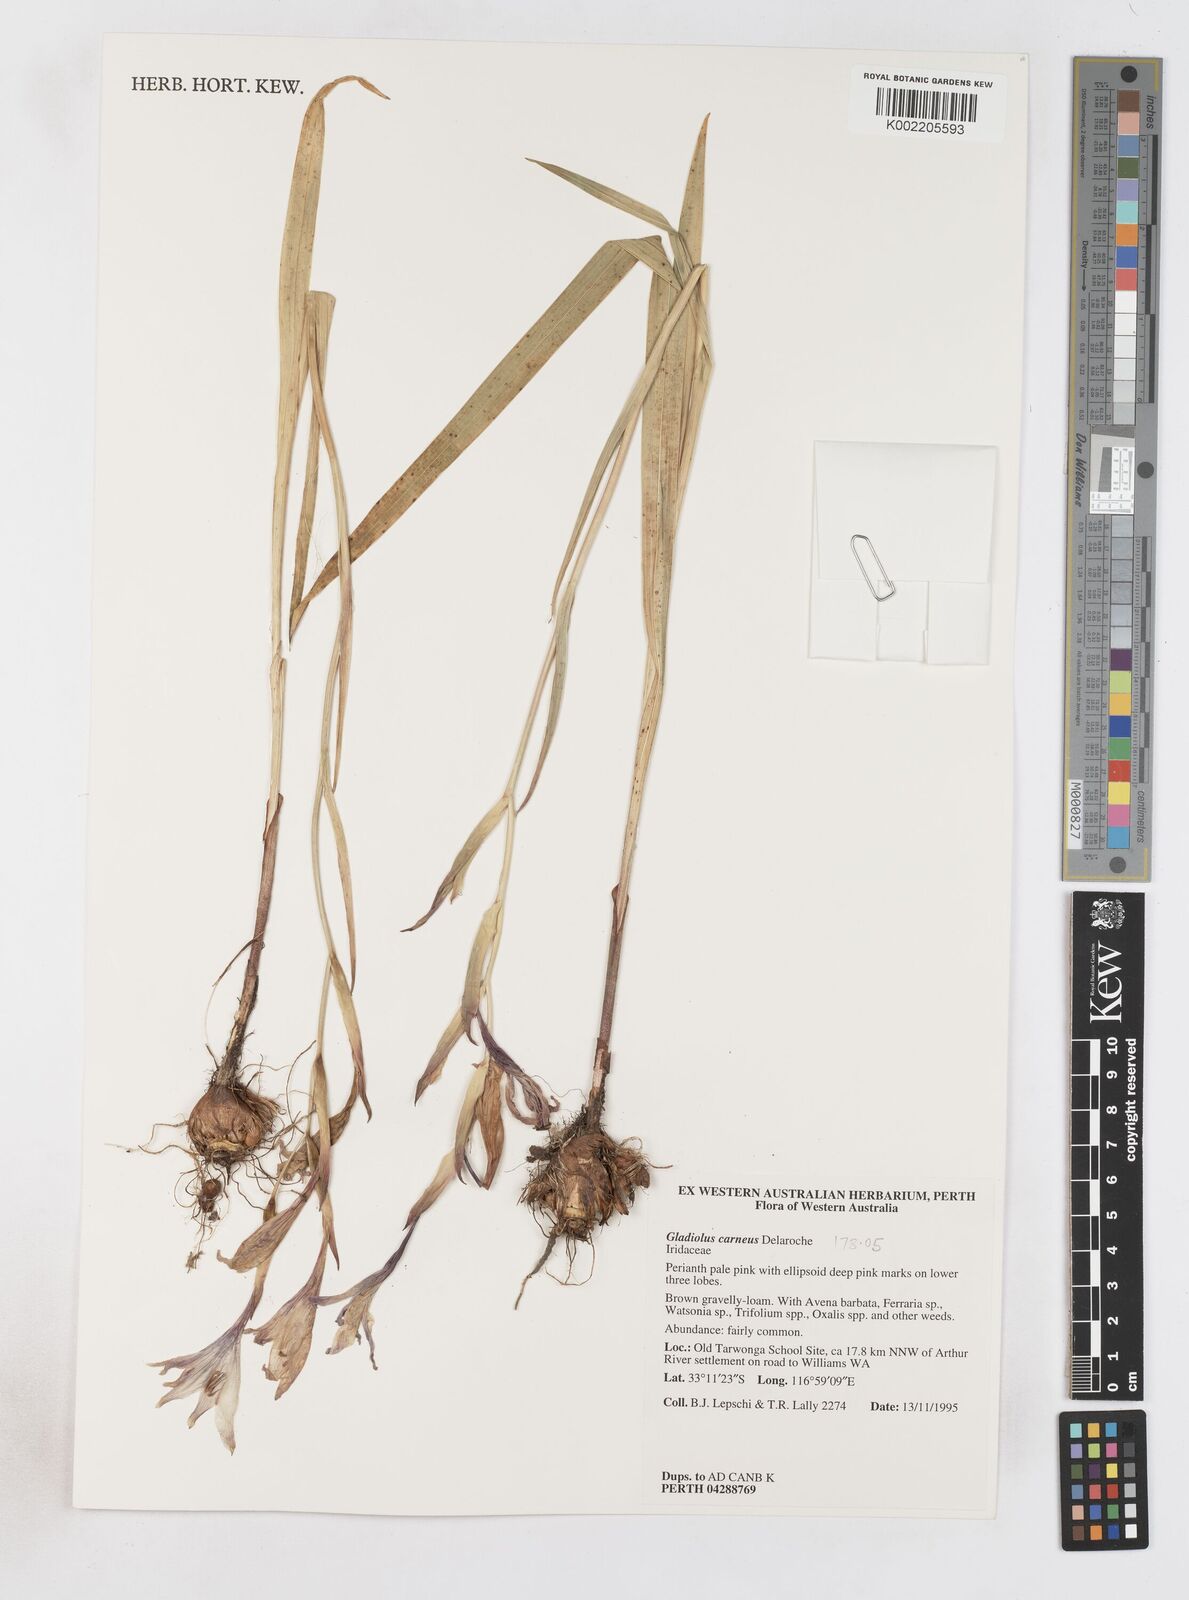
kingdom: Plantae
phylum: Tracheophyta
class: Liliopsida
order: Asparagales
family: Iridaceae
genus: Gladiolus
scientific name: Gladiolus carneus
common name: Painted-lady
